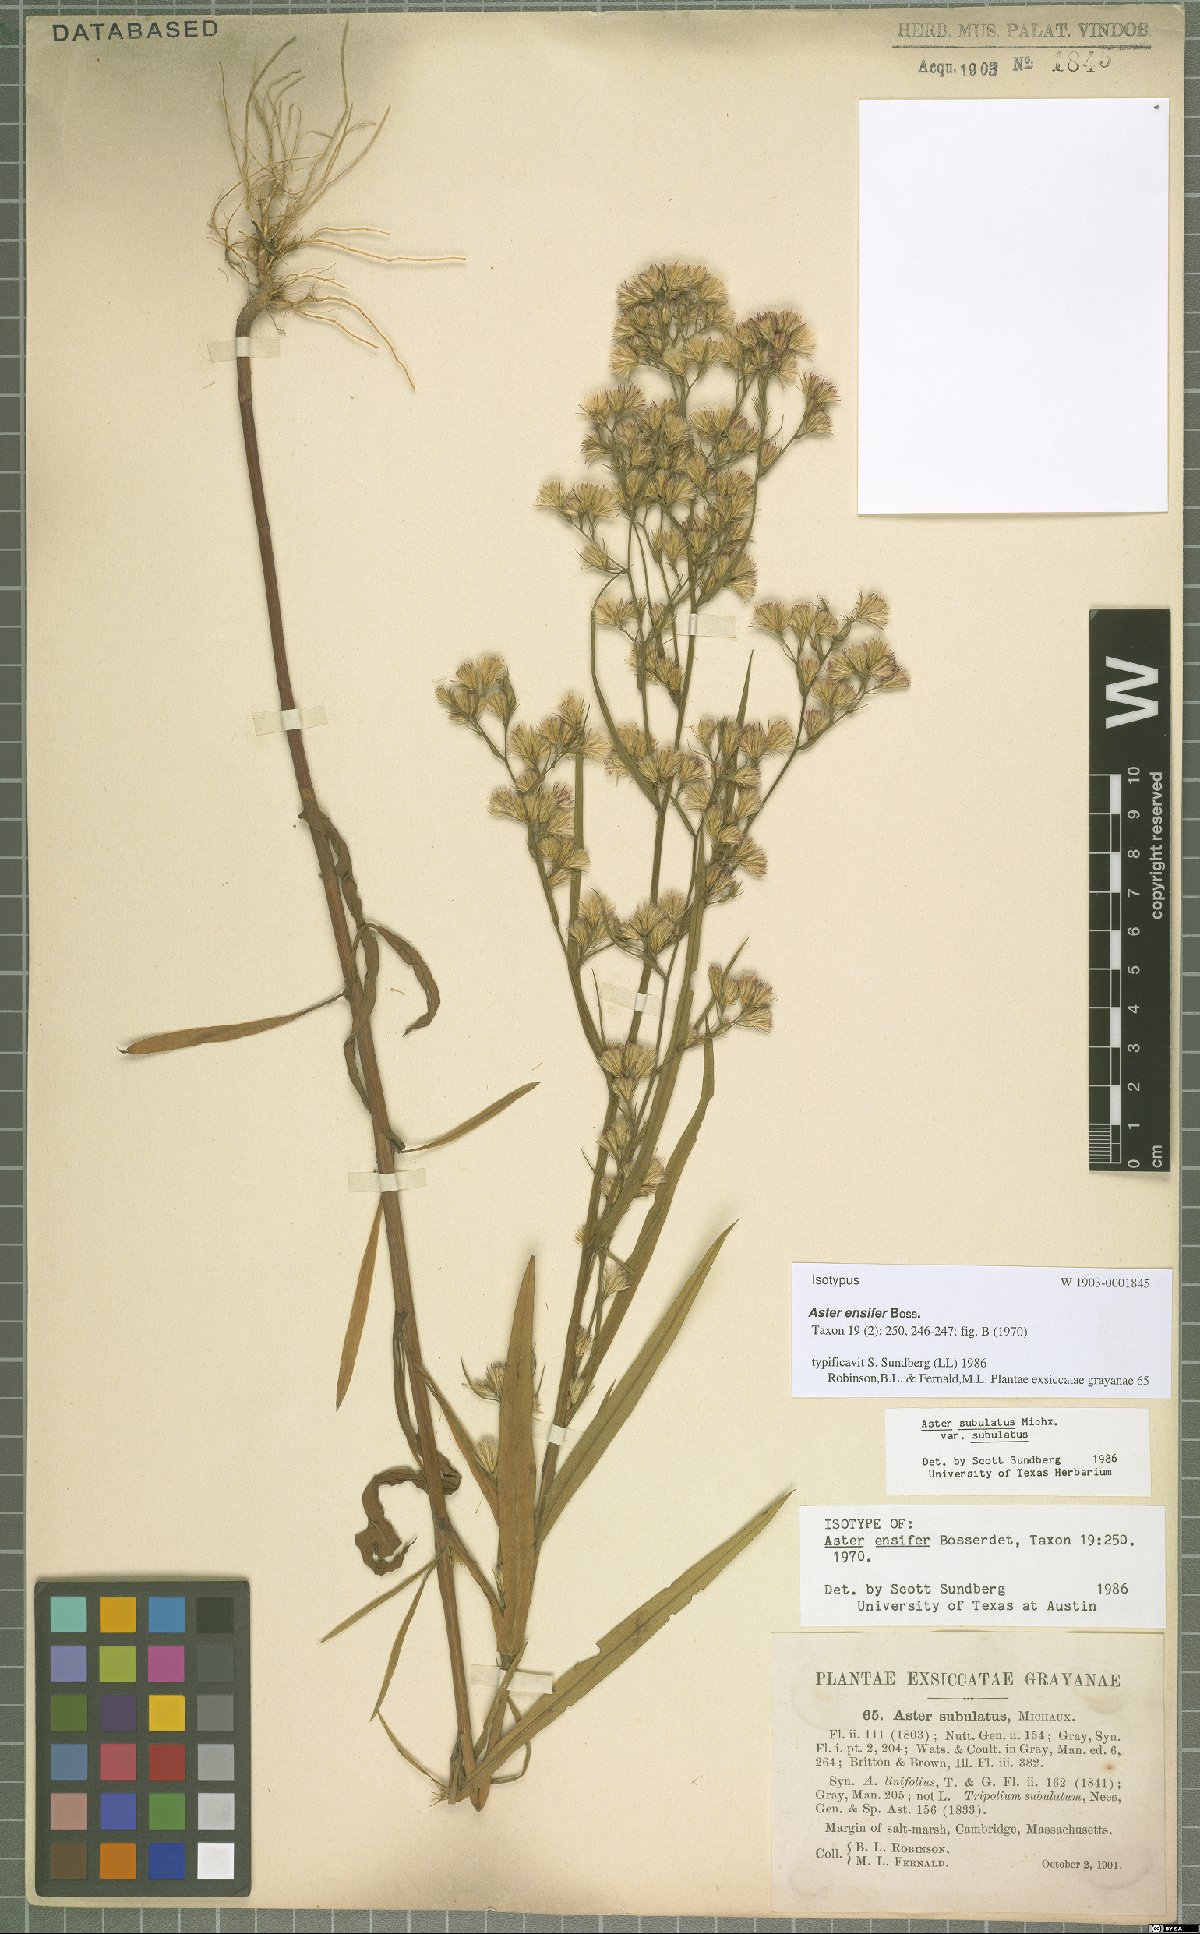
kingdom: Plantae
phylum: Tracheophyta
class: Magnoliopsida
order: Asterales
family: Asteraceae
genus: Aster
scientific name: Aster ensifer
